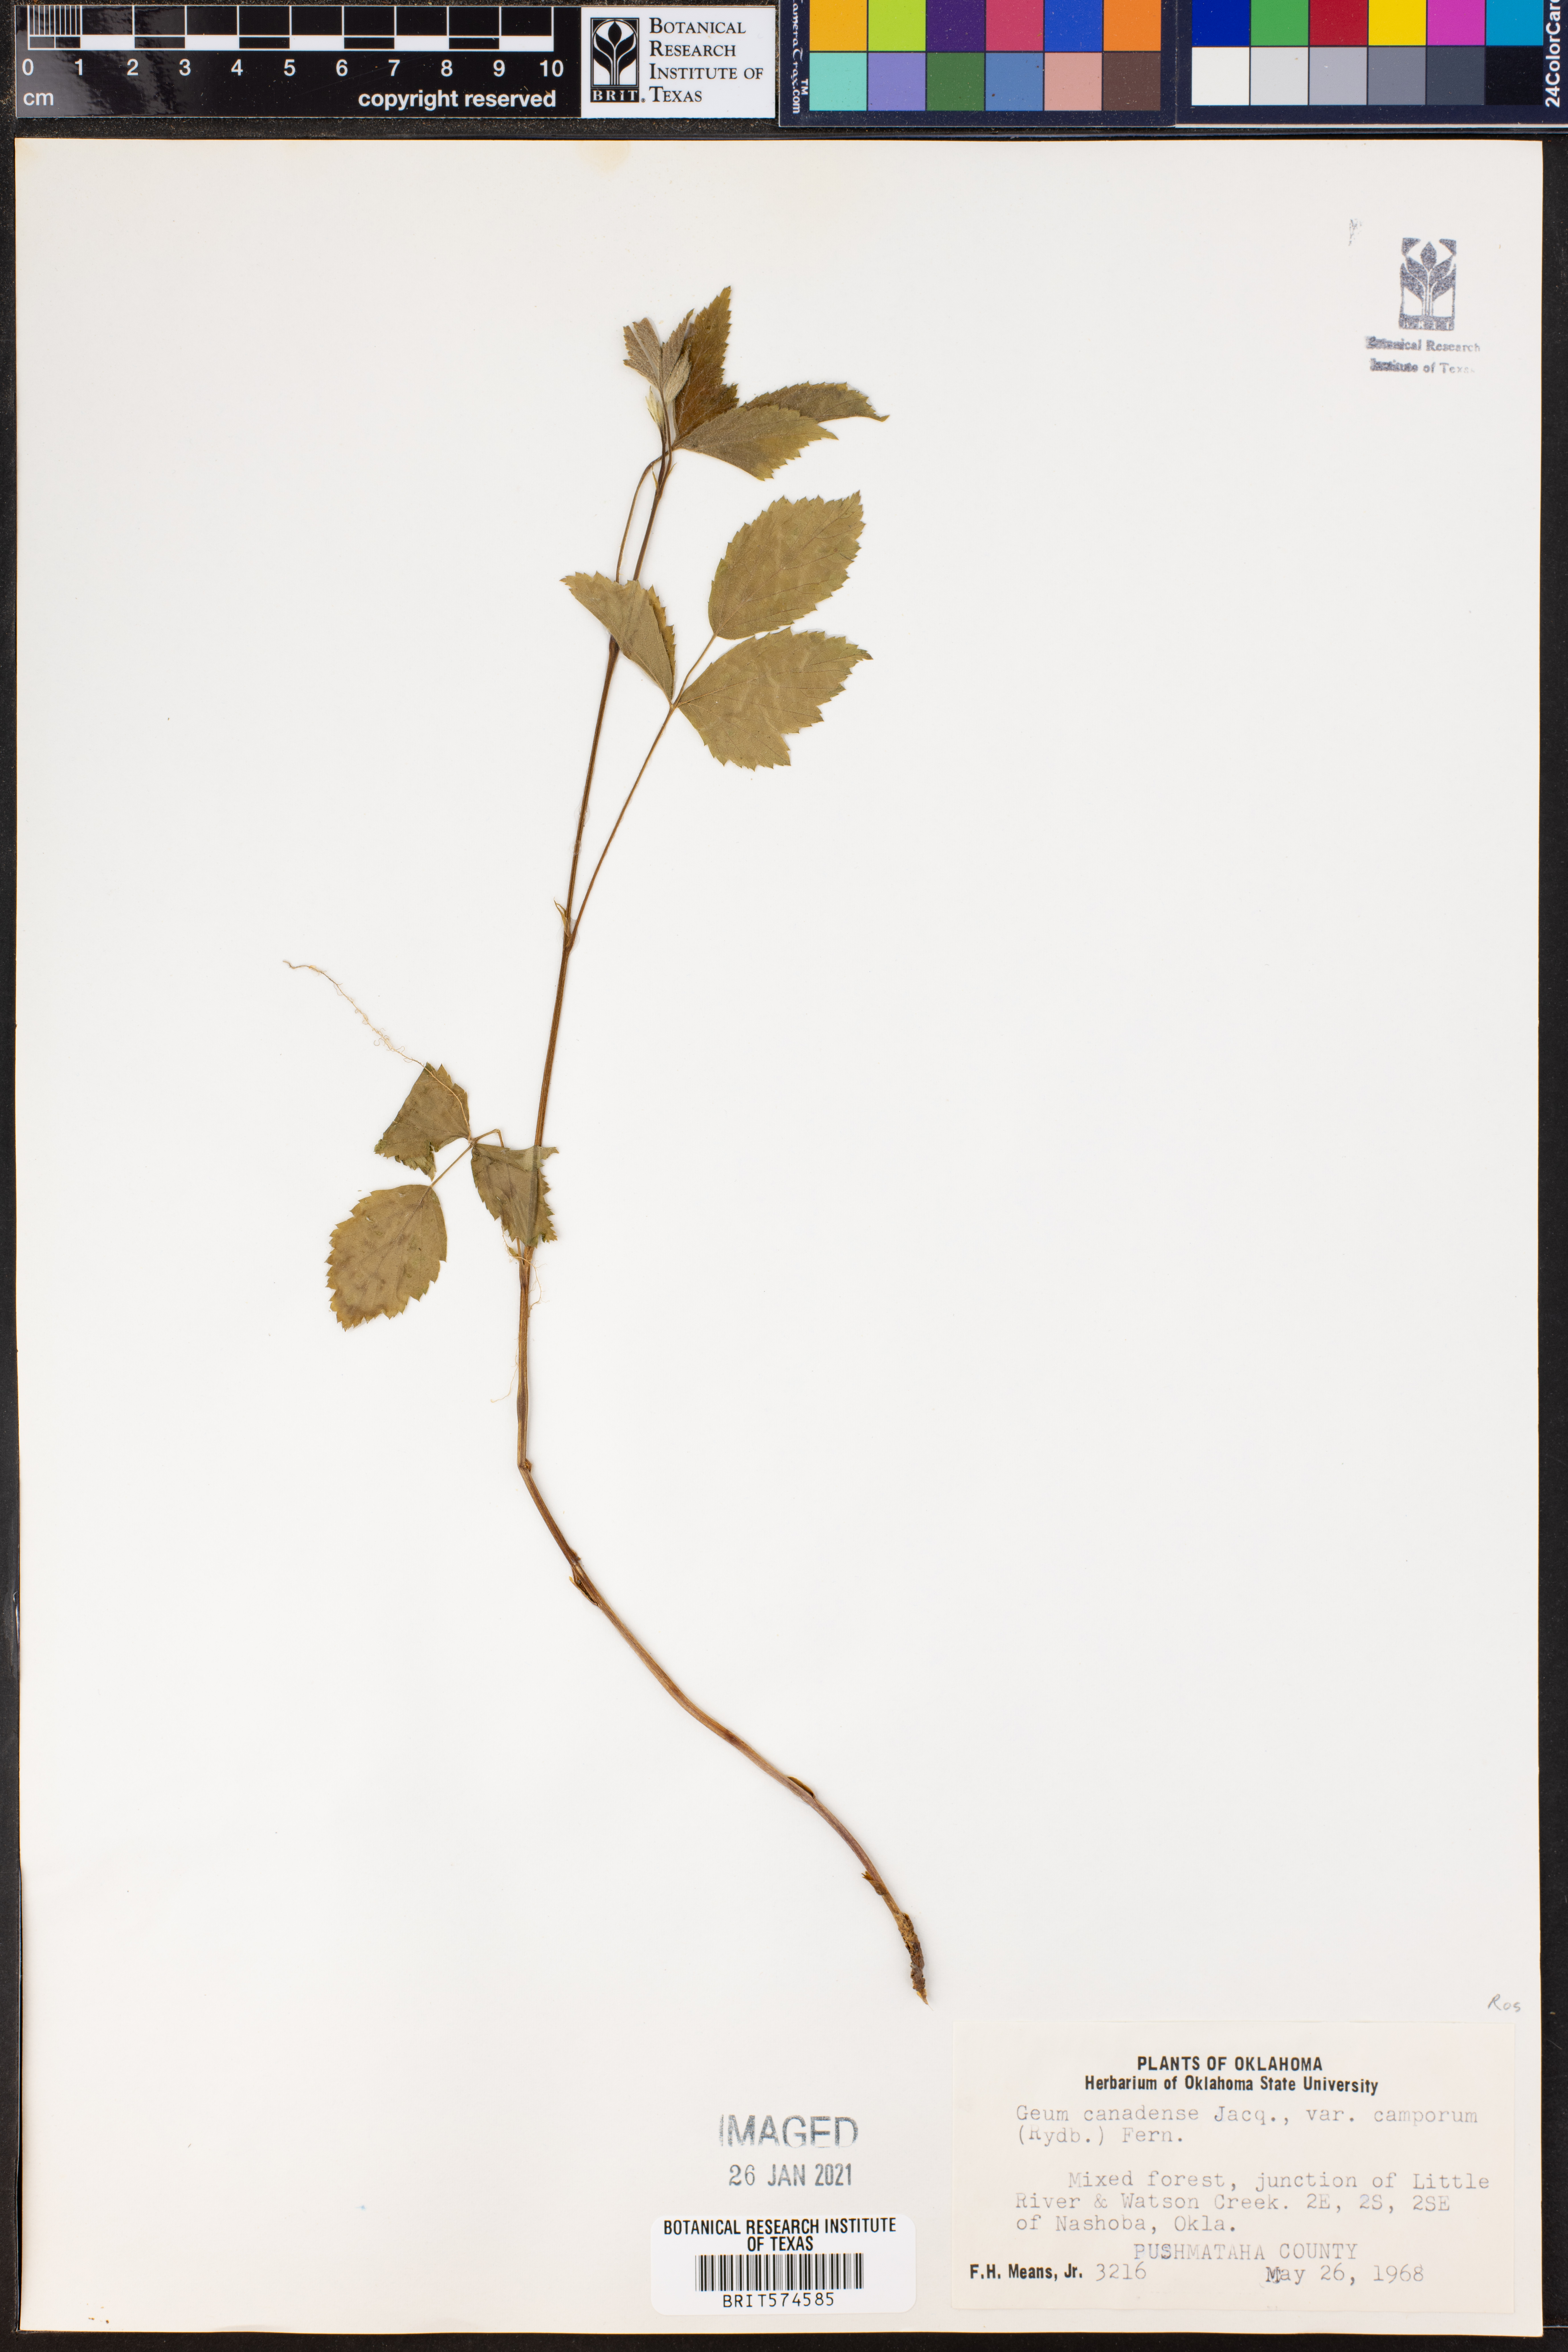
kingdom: Plantae
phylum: Tracheophyta
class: Magnoliopsida
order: Rosales
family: Rosaceae
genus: Geum
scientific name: Geum canadense
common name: White avens
